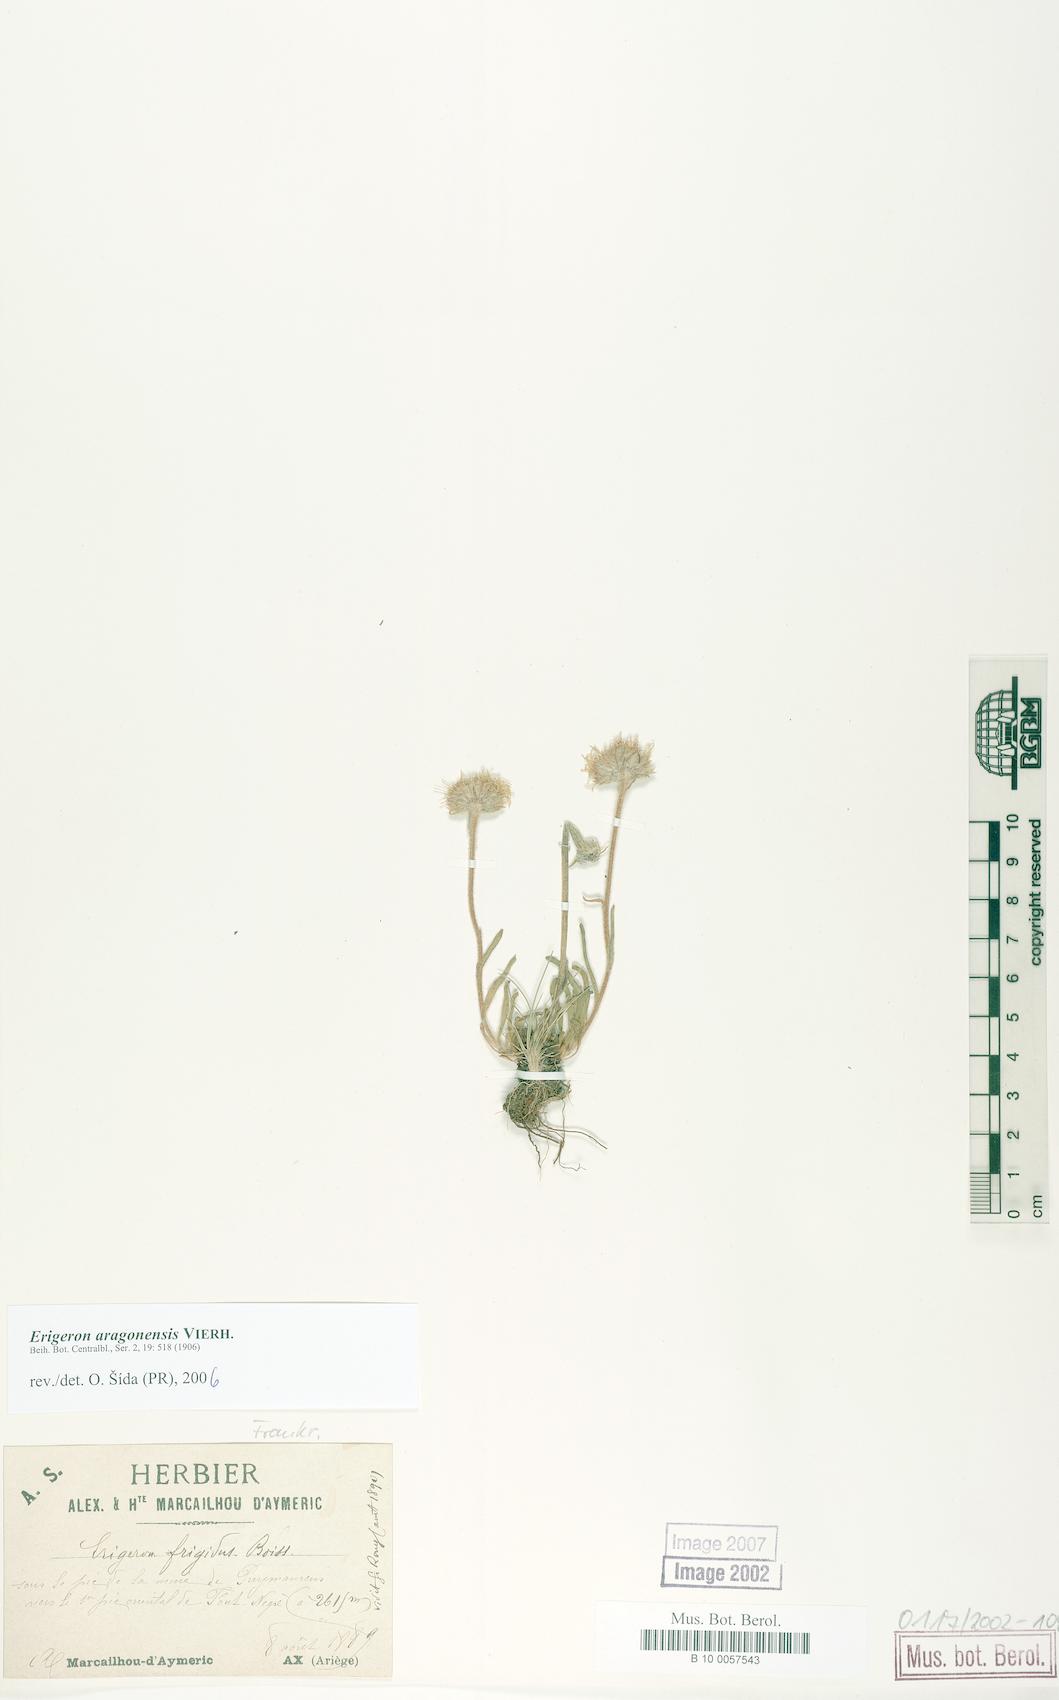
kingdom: Plantae
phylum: Tracheophyta
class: Magnoliopsida
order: Asterales
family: Asteraceae
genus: Erigeron
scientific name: Erigeron aragonensis
